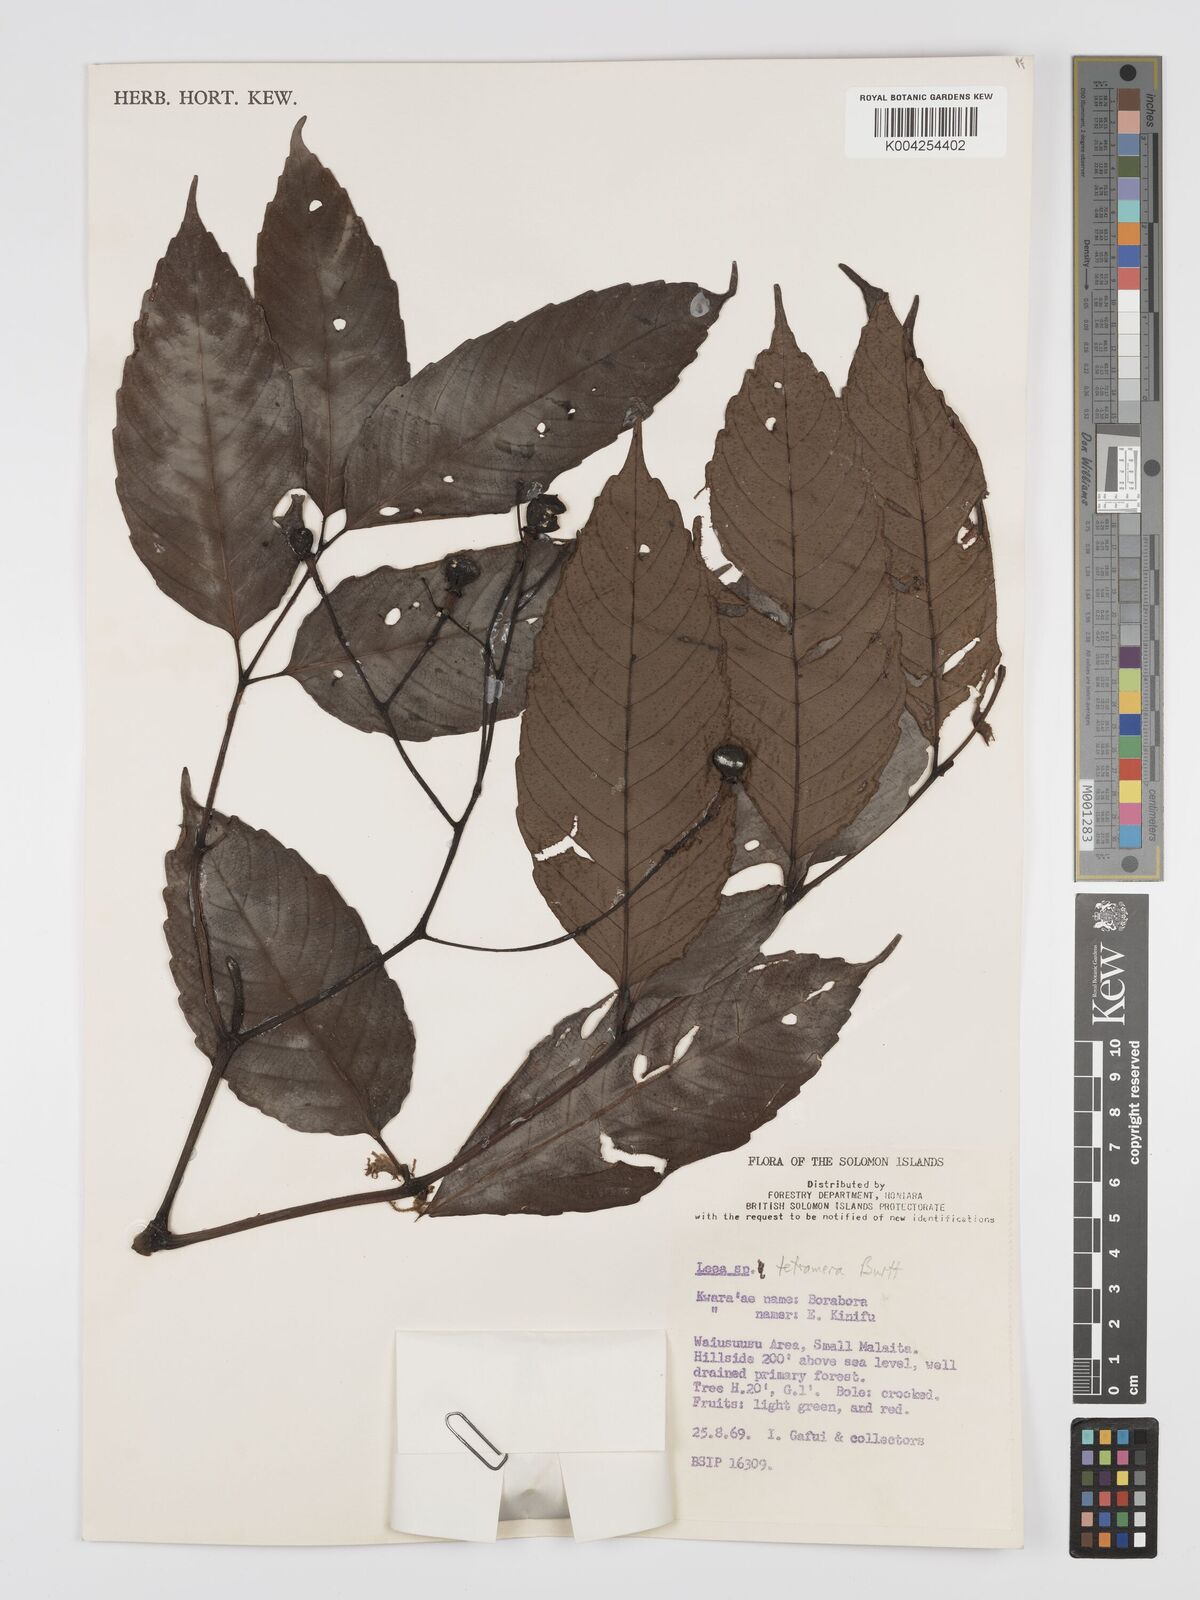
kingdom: Plantae
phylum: Tracheophyta
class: Magnoliopsida
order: Vitales
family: Vitaceae
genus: Leea
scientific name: Leea tetramera
